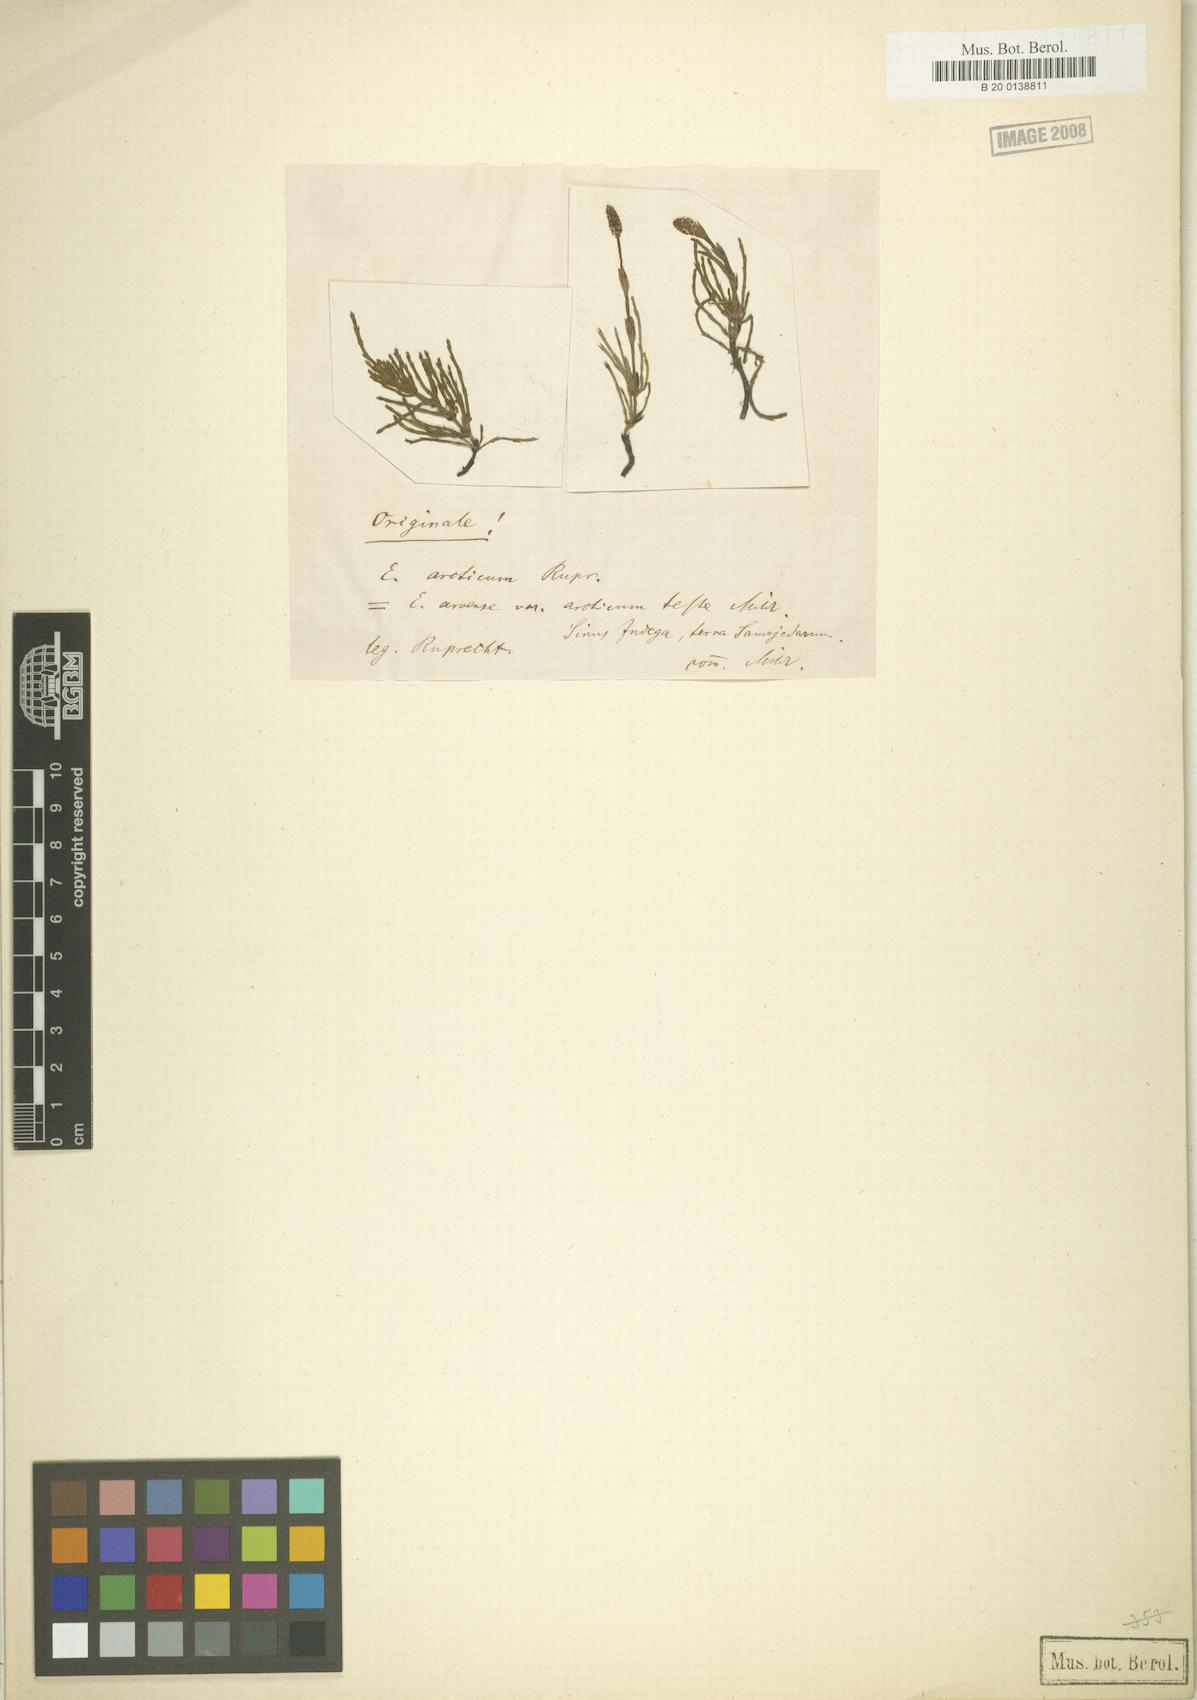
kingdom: Plantae
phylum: Tracheophyta
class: Polypodiopsida
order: Equisetales
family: Equisetaceae
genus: Equisetum
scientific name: Equisetum arvense
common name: Field horsetail
